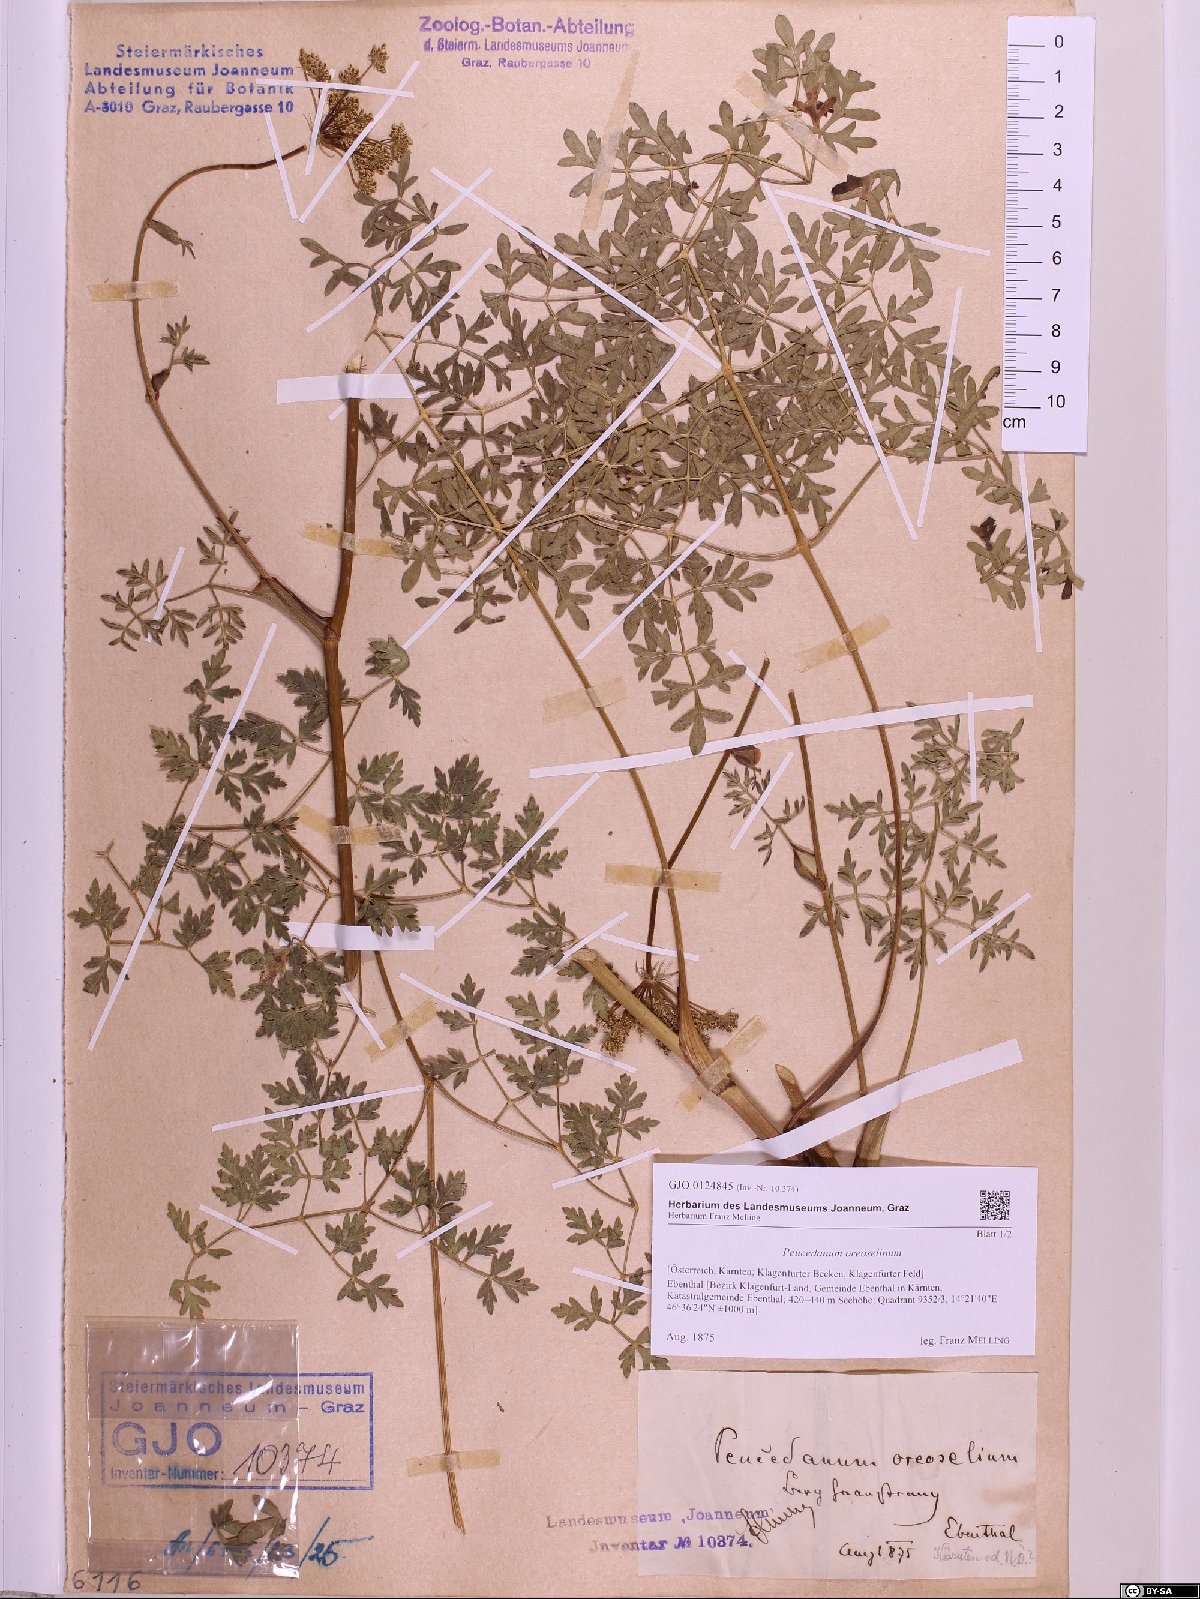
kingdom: Plantae
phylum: Tracheophyta
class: Magnoliopsida
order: Apiales
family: Apiaceae
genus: Oreoselinum
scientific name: Oreoselinum nigrum
